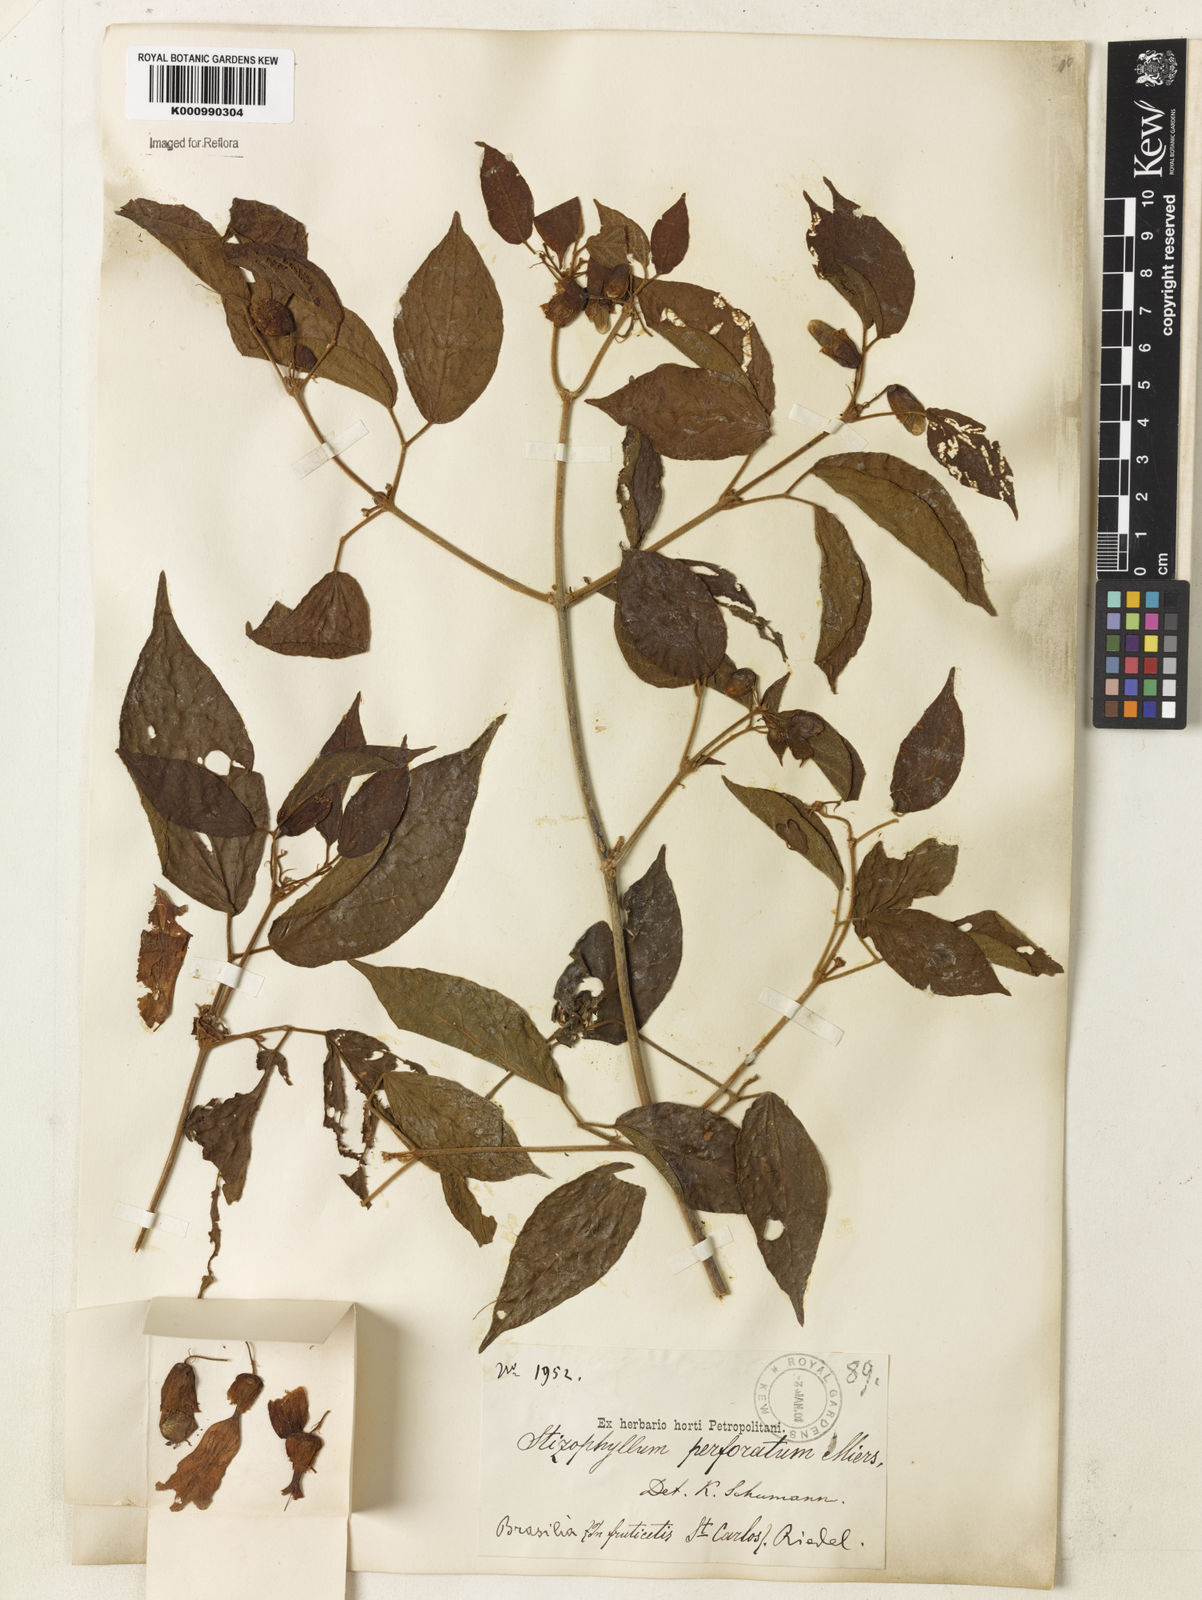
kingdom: Plantae
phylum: Tracheophyta
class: Magnoliopsida
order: Lamiales
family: Bignoniaceae
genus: Stizophyllum
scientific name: Stizophyllum perforatum
